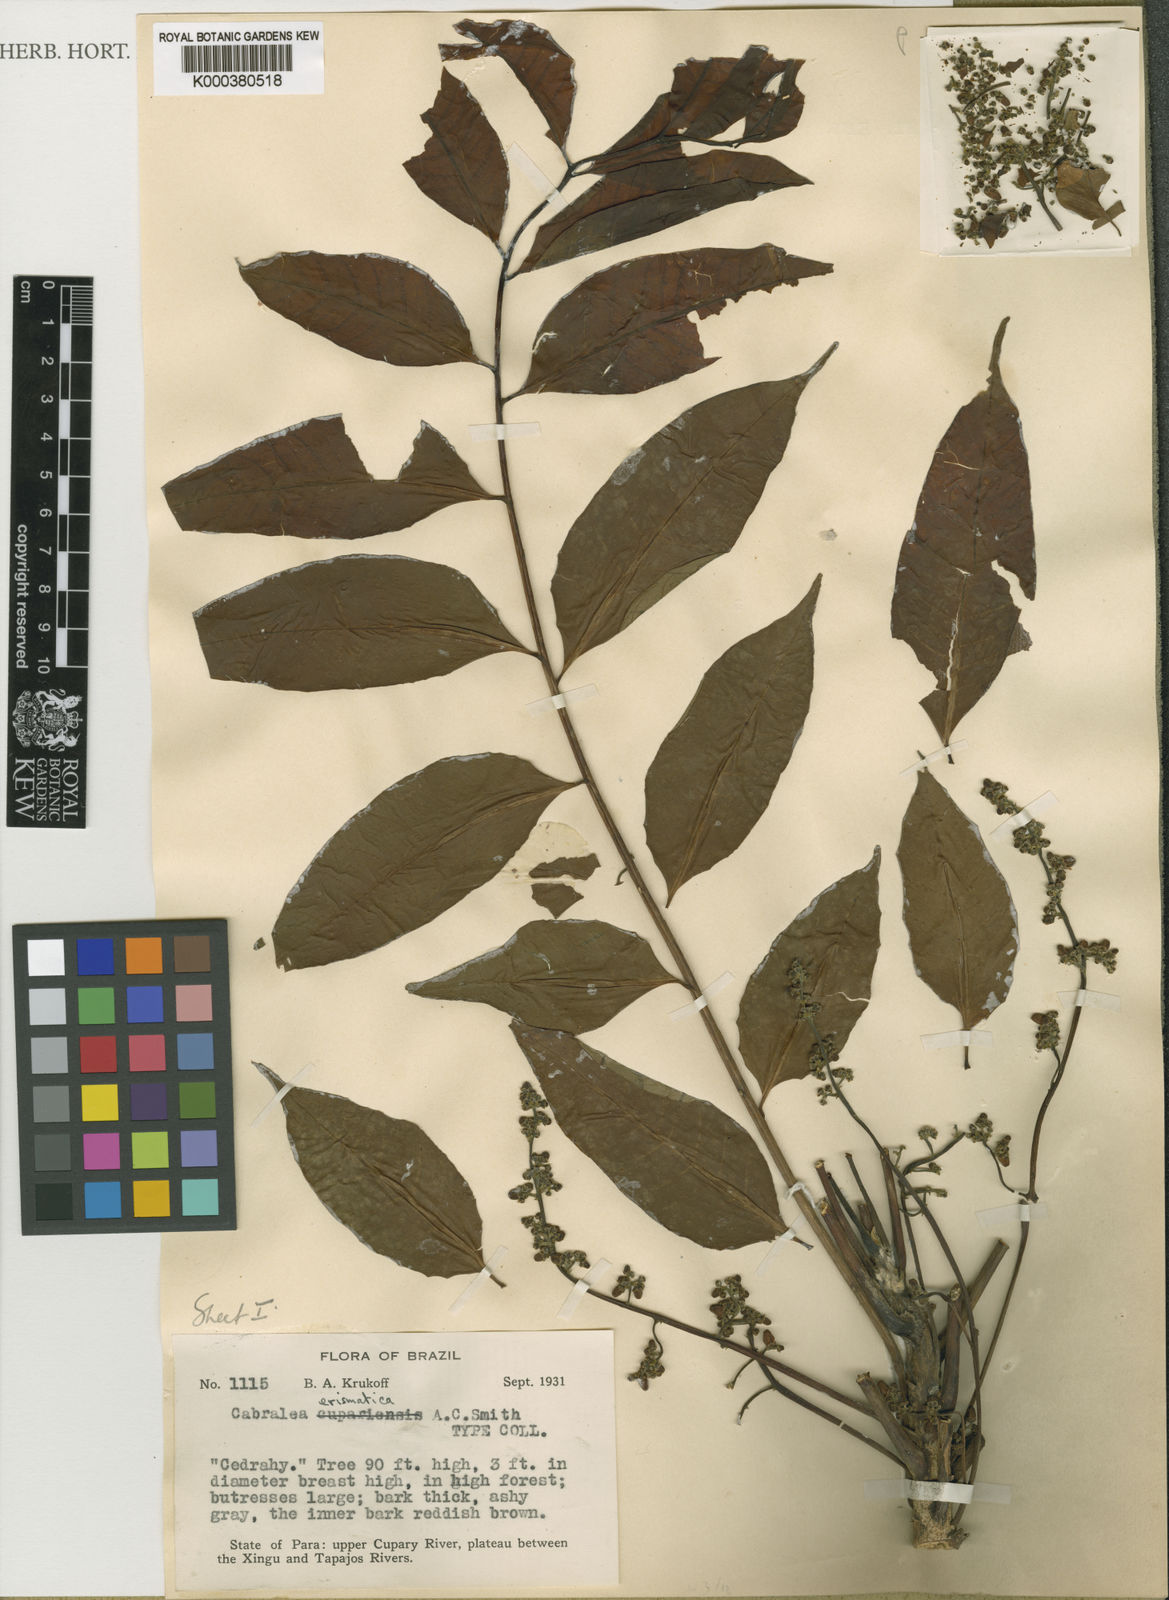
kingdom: Plantae
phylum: Tracheophyta
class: Magnoliopsida
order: Sapindales
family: Meliaceae
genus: Cabralea
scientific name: Cabralea canjerana
